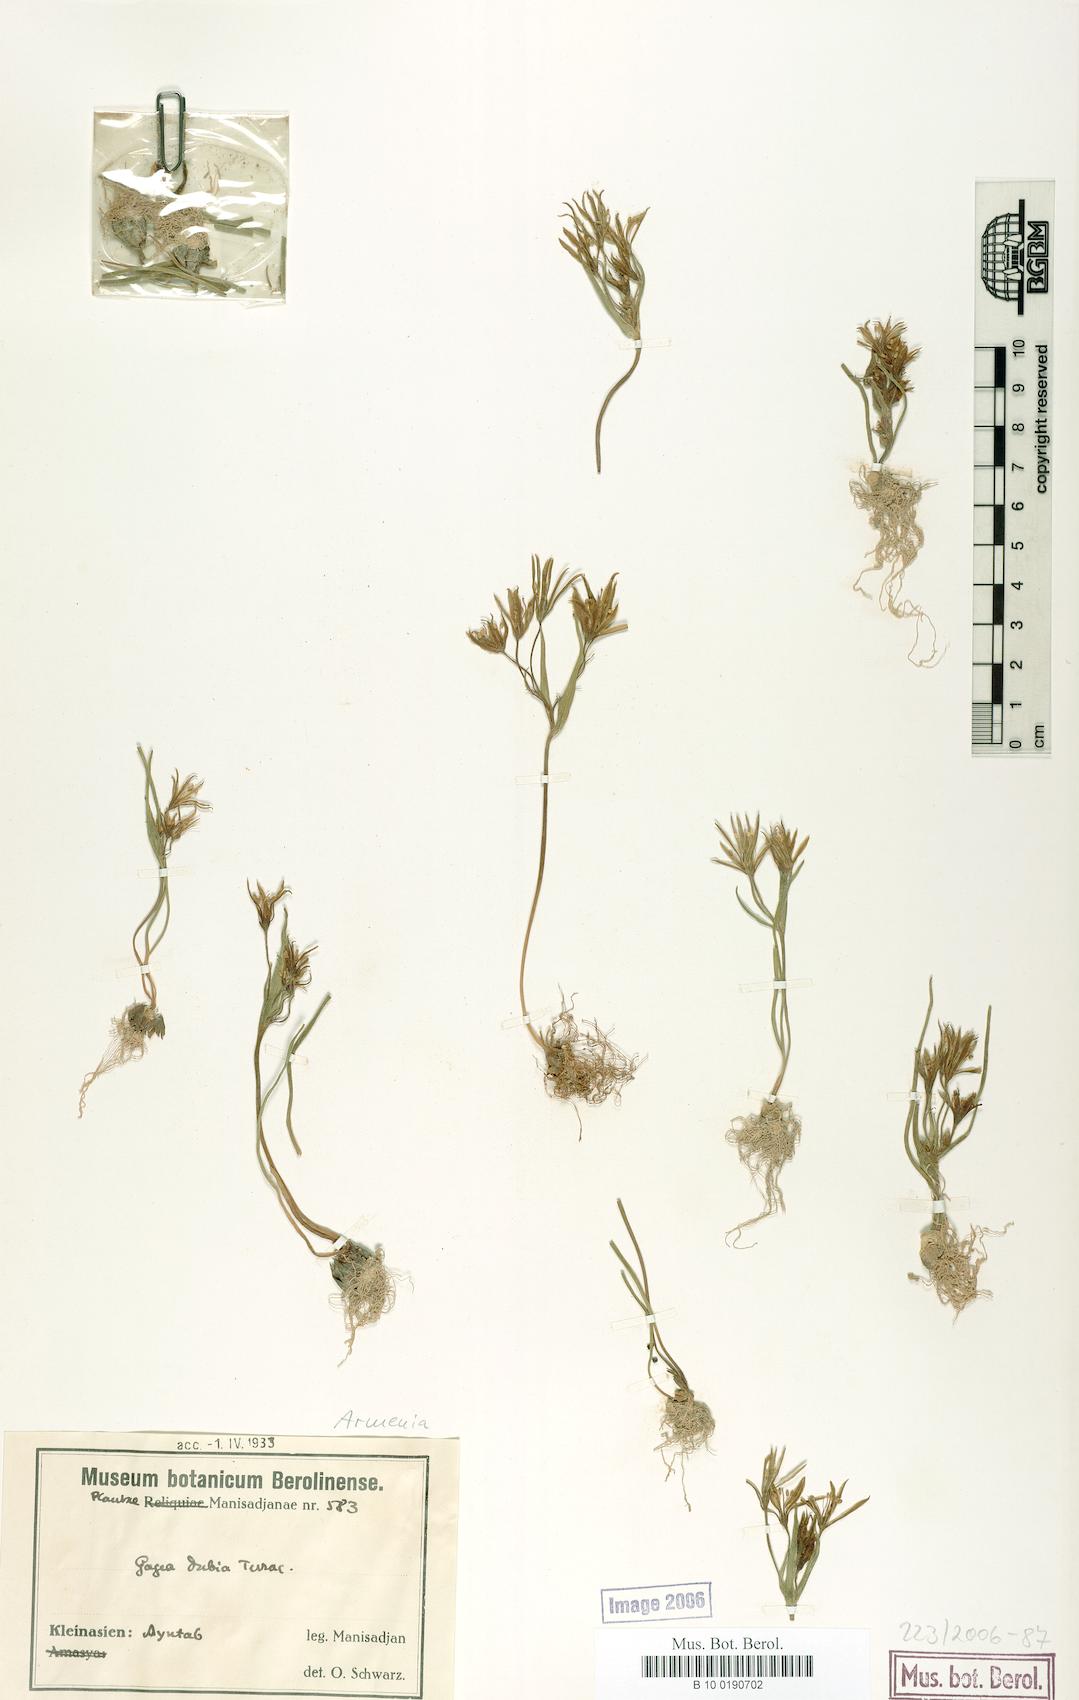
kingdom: Plantae
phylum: Tracheophyta
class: Liliopsida
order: Liliales
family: Liliaceae
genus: Gagea
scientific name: Gagea dubia
